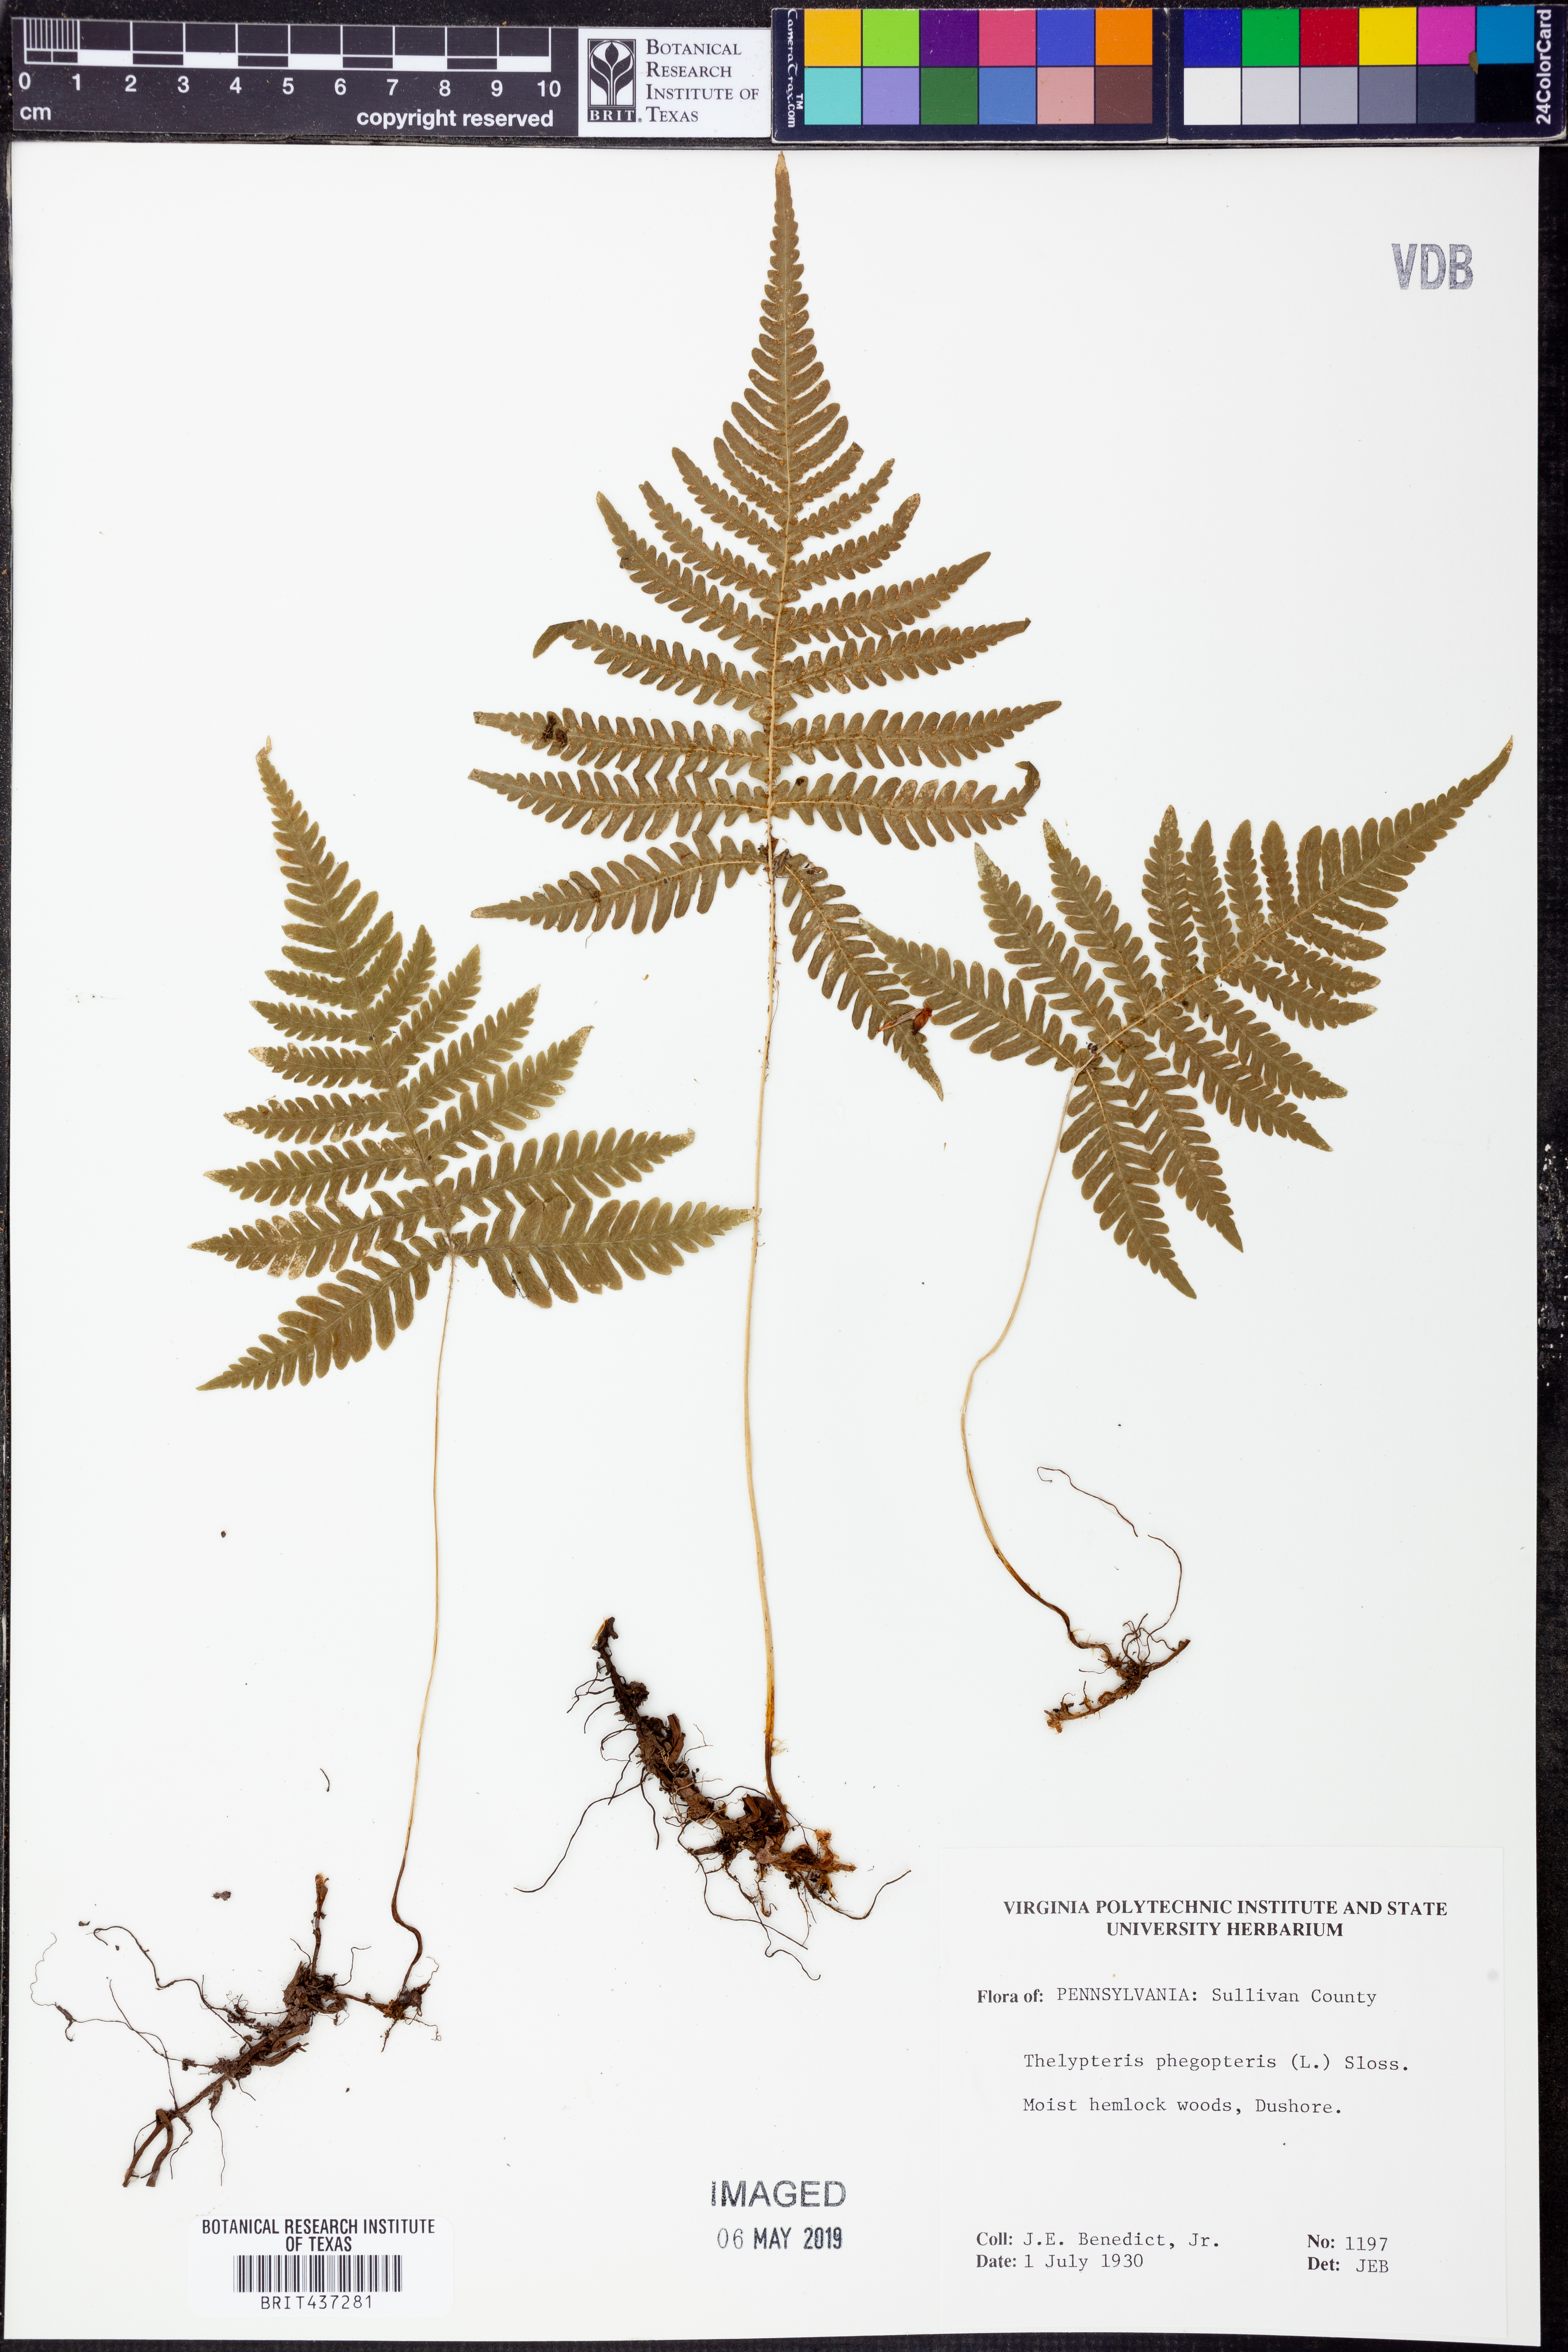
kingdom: Plantae
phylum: Tracheophyta
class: Polypodiopsida
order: Polypodiales
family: Thelypteridaceae
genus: Phegopteris
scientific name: Phegopteris connectilis
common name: Beech fern
